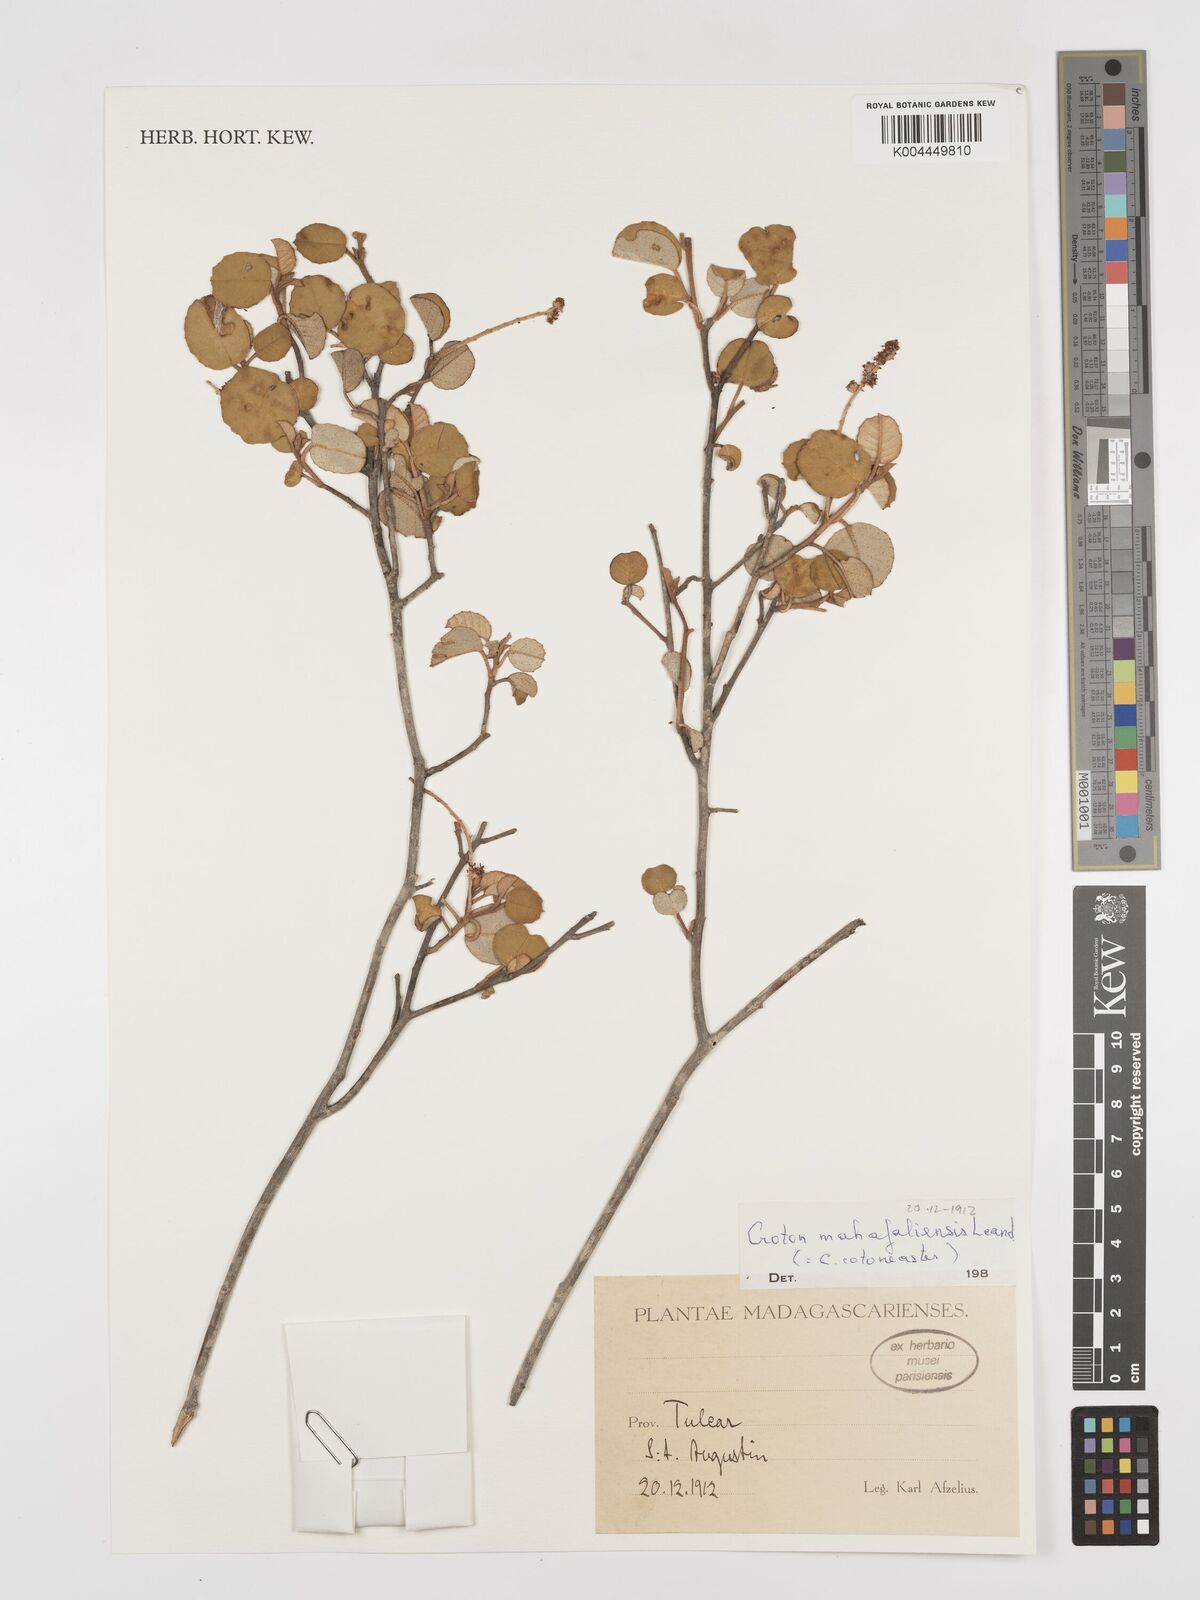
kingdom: Plantae
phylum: Tracheophyta
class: Magnoliopsida
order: Malpighiales
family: Euphorbiaceae
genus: Croton
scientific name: Croton cotoneaster
